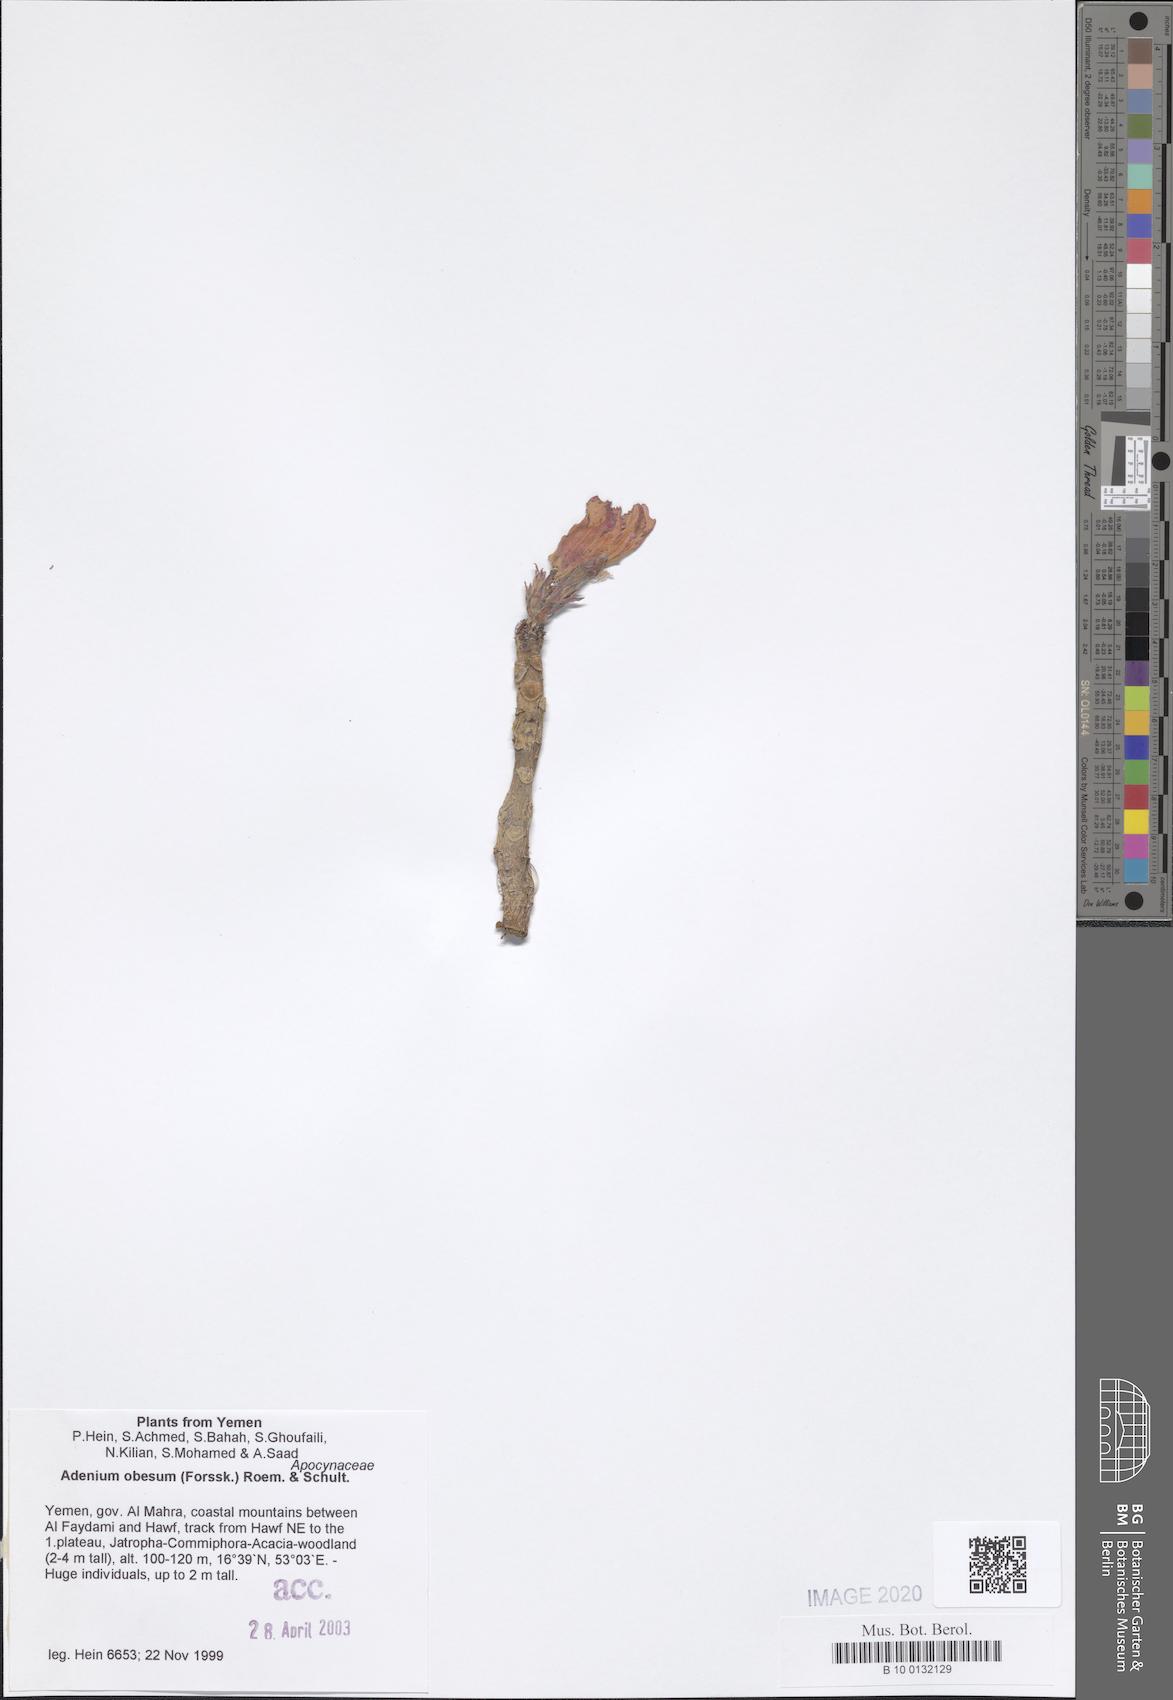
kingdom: Plantae
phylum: Tracheophyta
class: Magnoliopsida
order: Gentianales
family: Apocynaceae
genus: Adenium
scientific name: Adenium obesum
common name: Desert-rose
